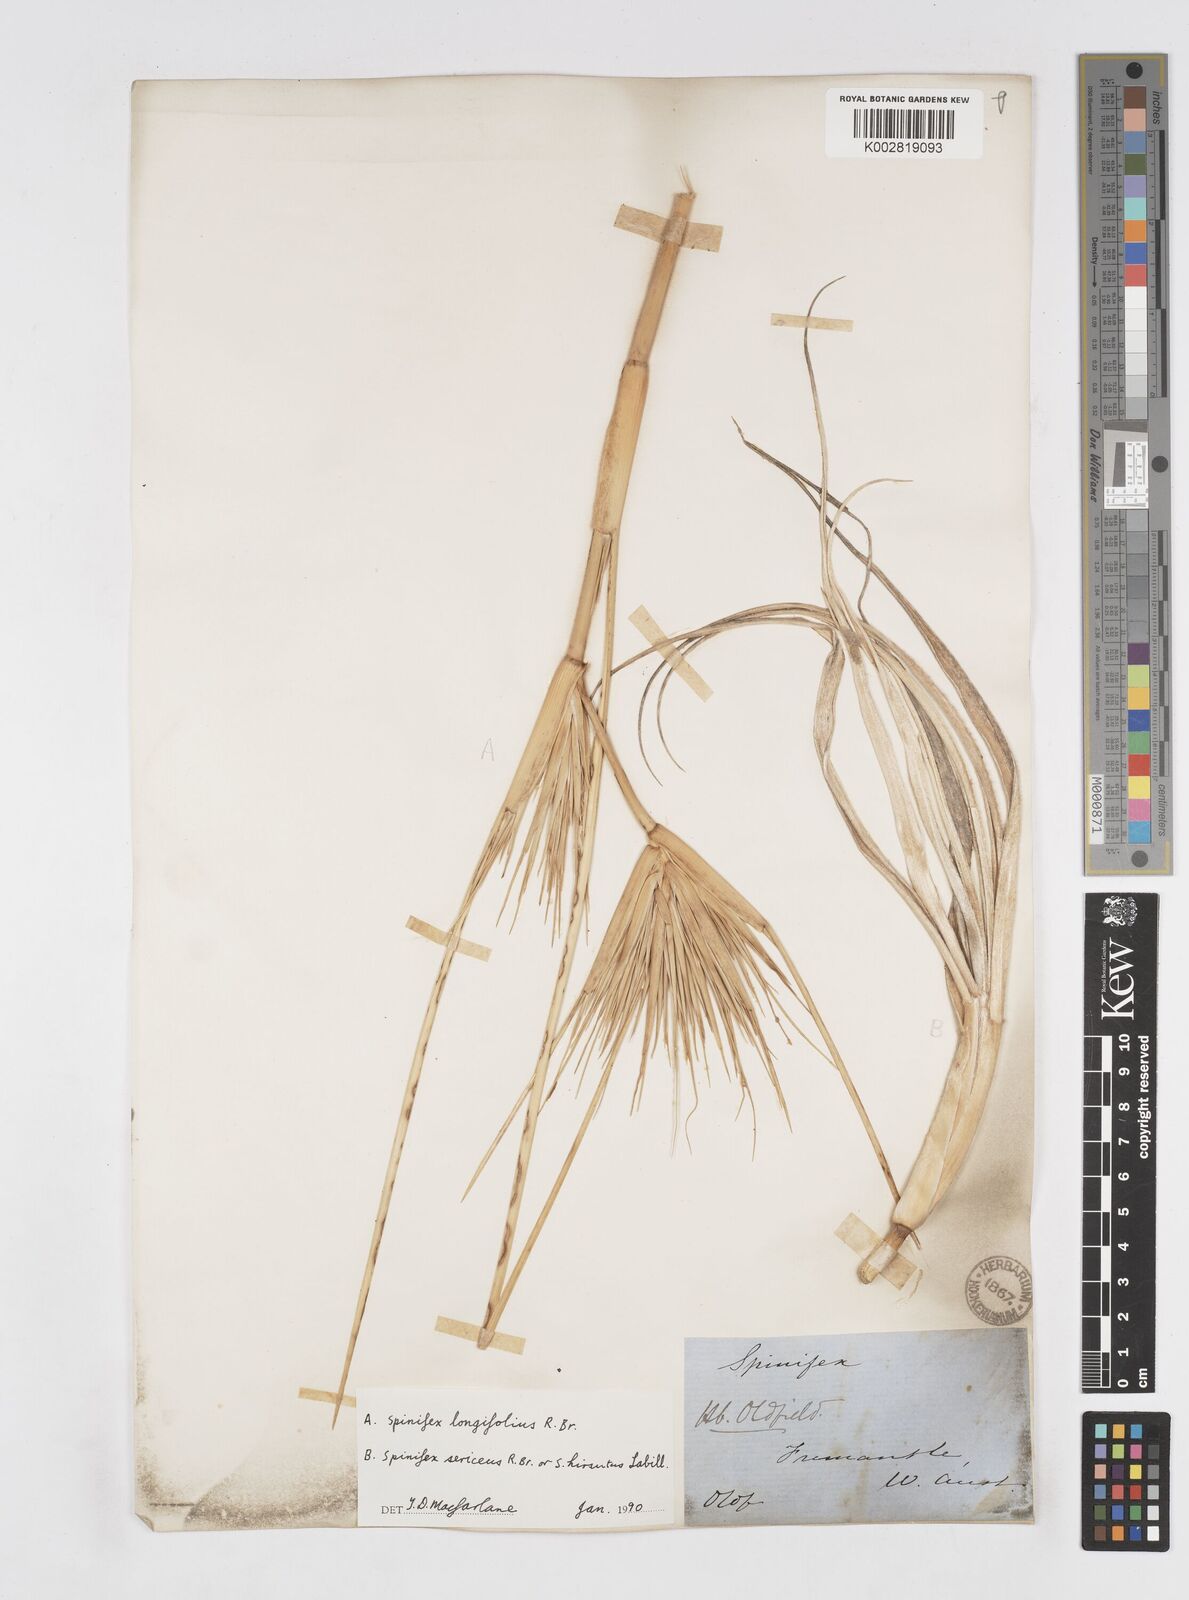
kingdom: Plantae
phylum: Tracheophyta
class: Liliopsida
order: Poales
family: Poaceae
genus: Spinifex
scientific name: Spinifex longifolius
